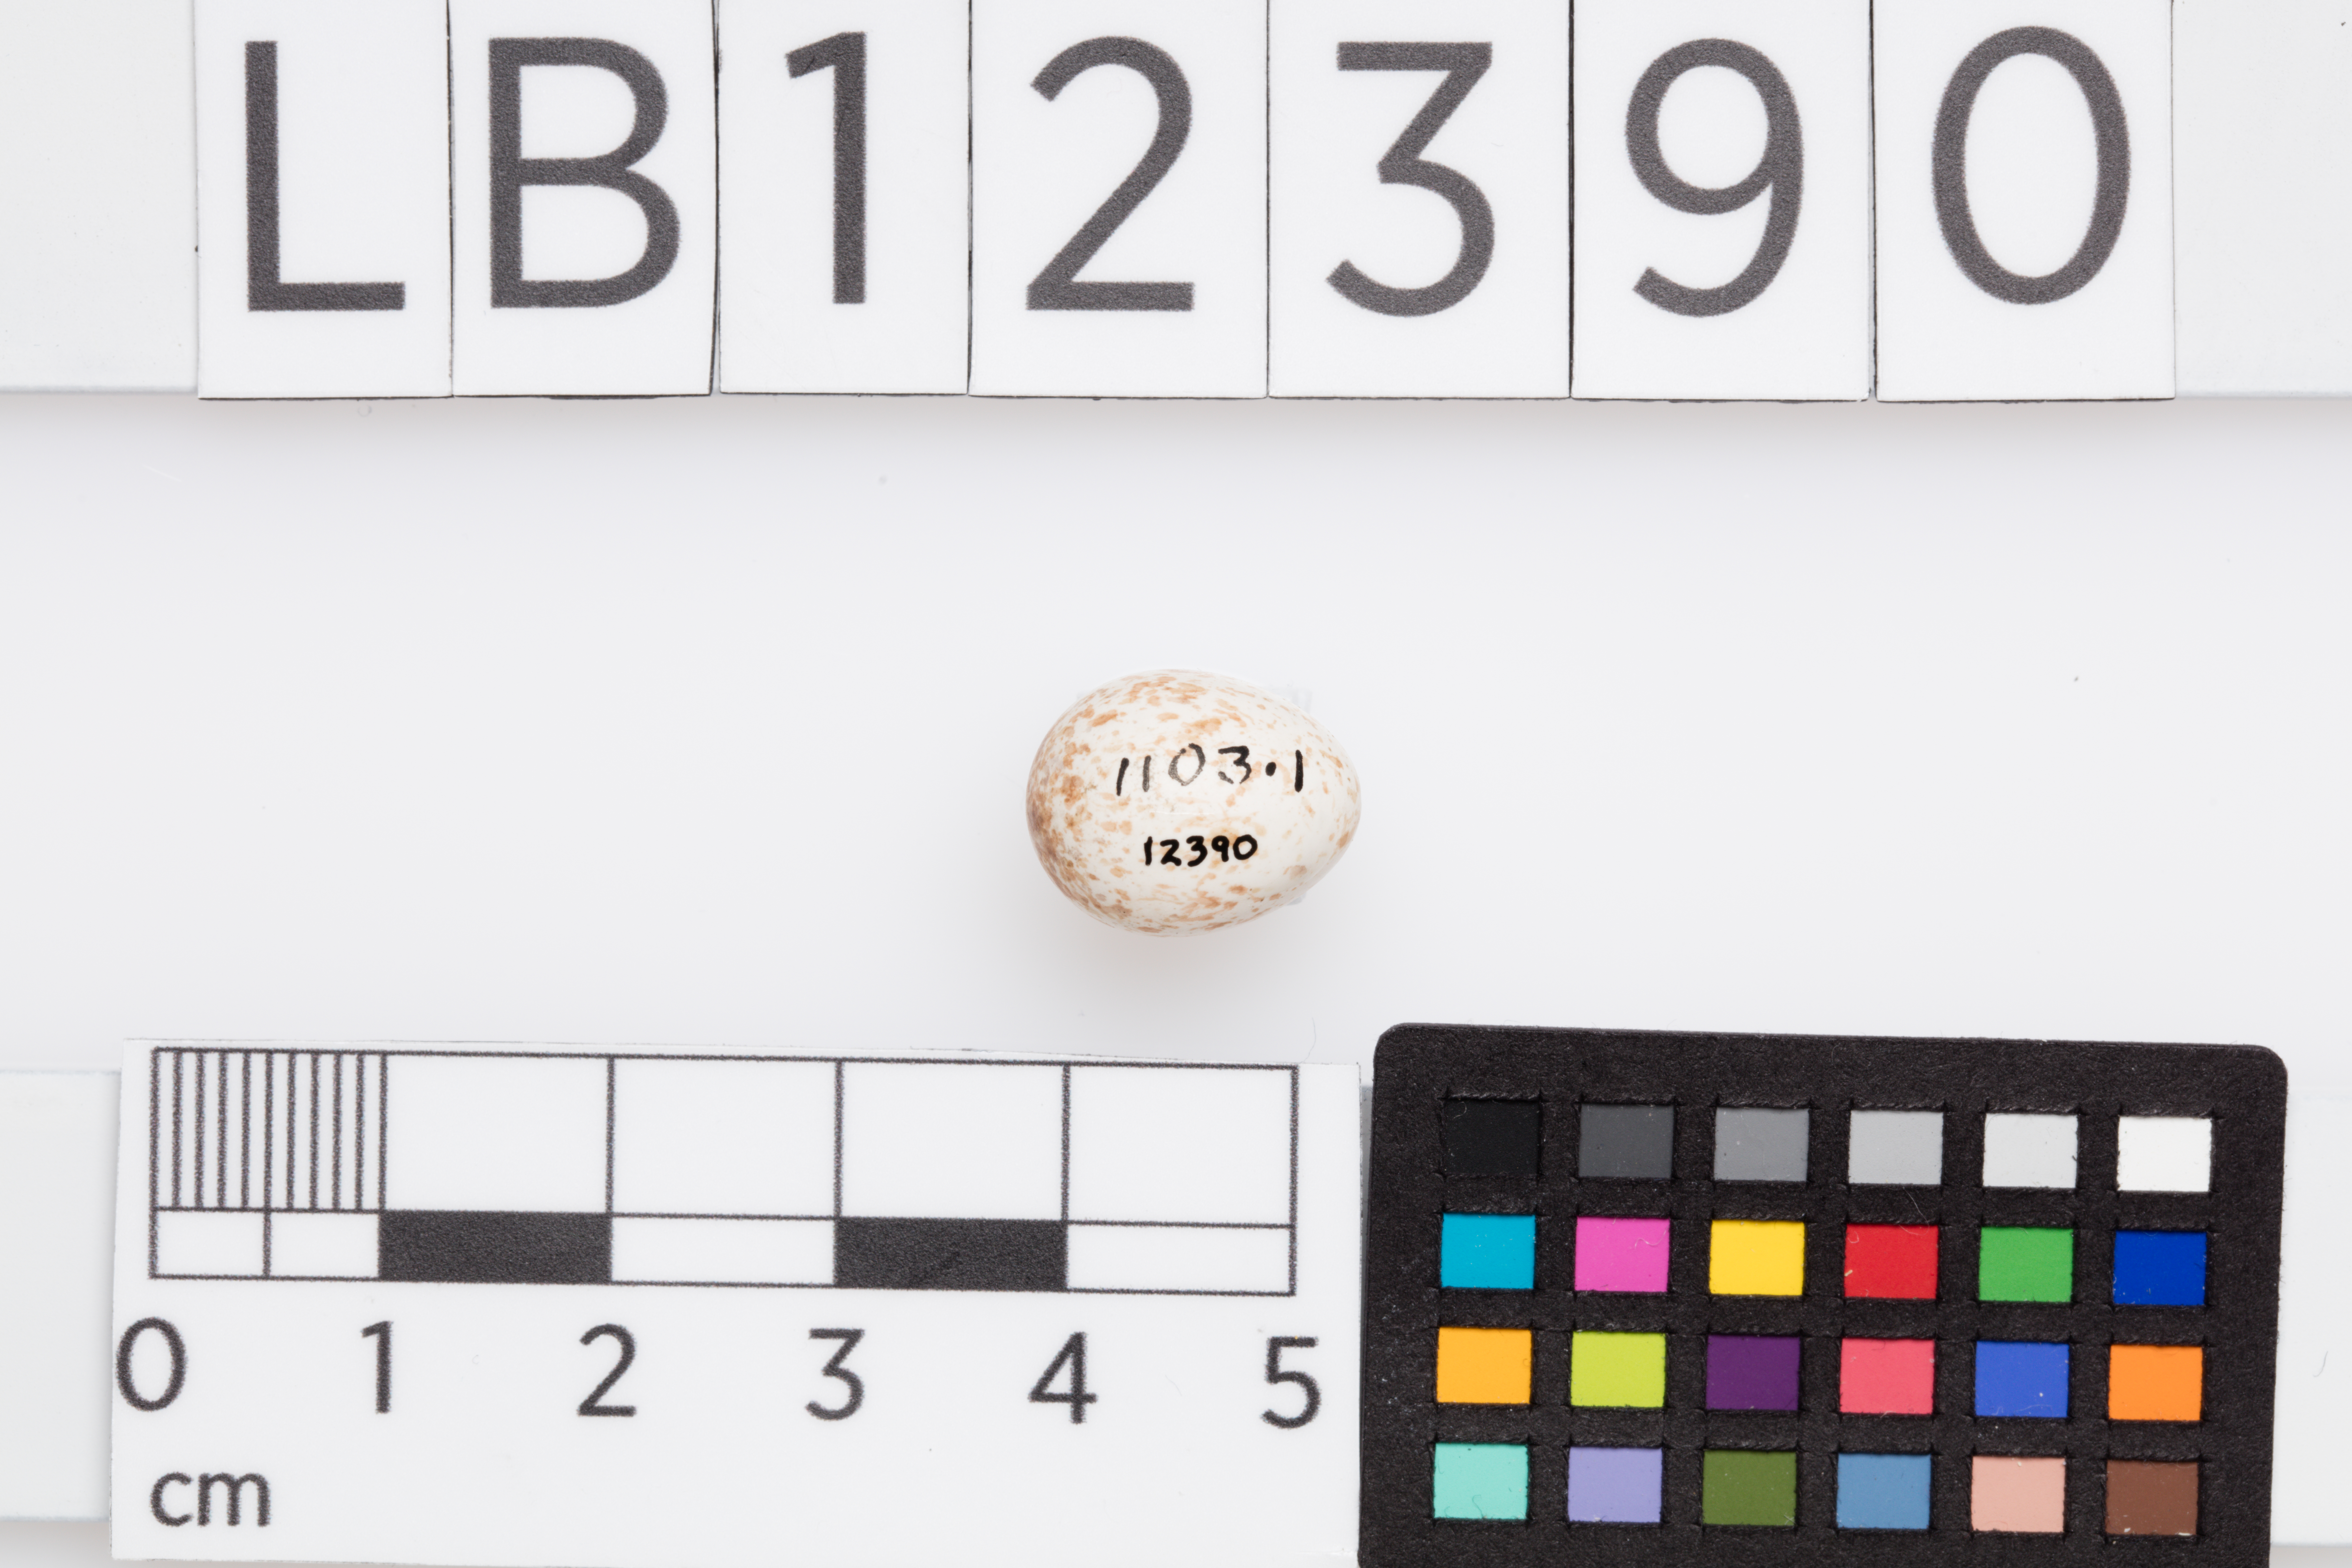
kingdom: Animalia
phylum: Chordata
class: Aves
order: Passeriformes
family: Phylloscopidae
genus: Phylloscopus
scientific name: Phylloscopus trochilus
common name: Willow warbler
